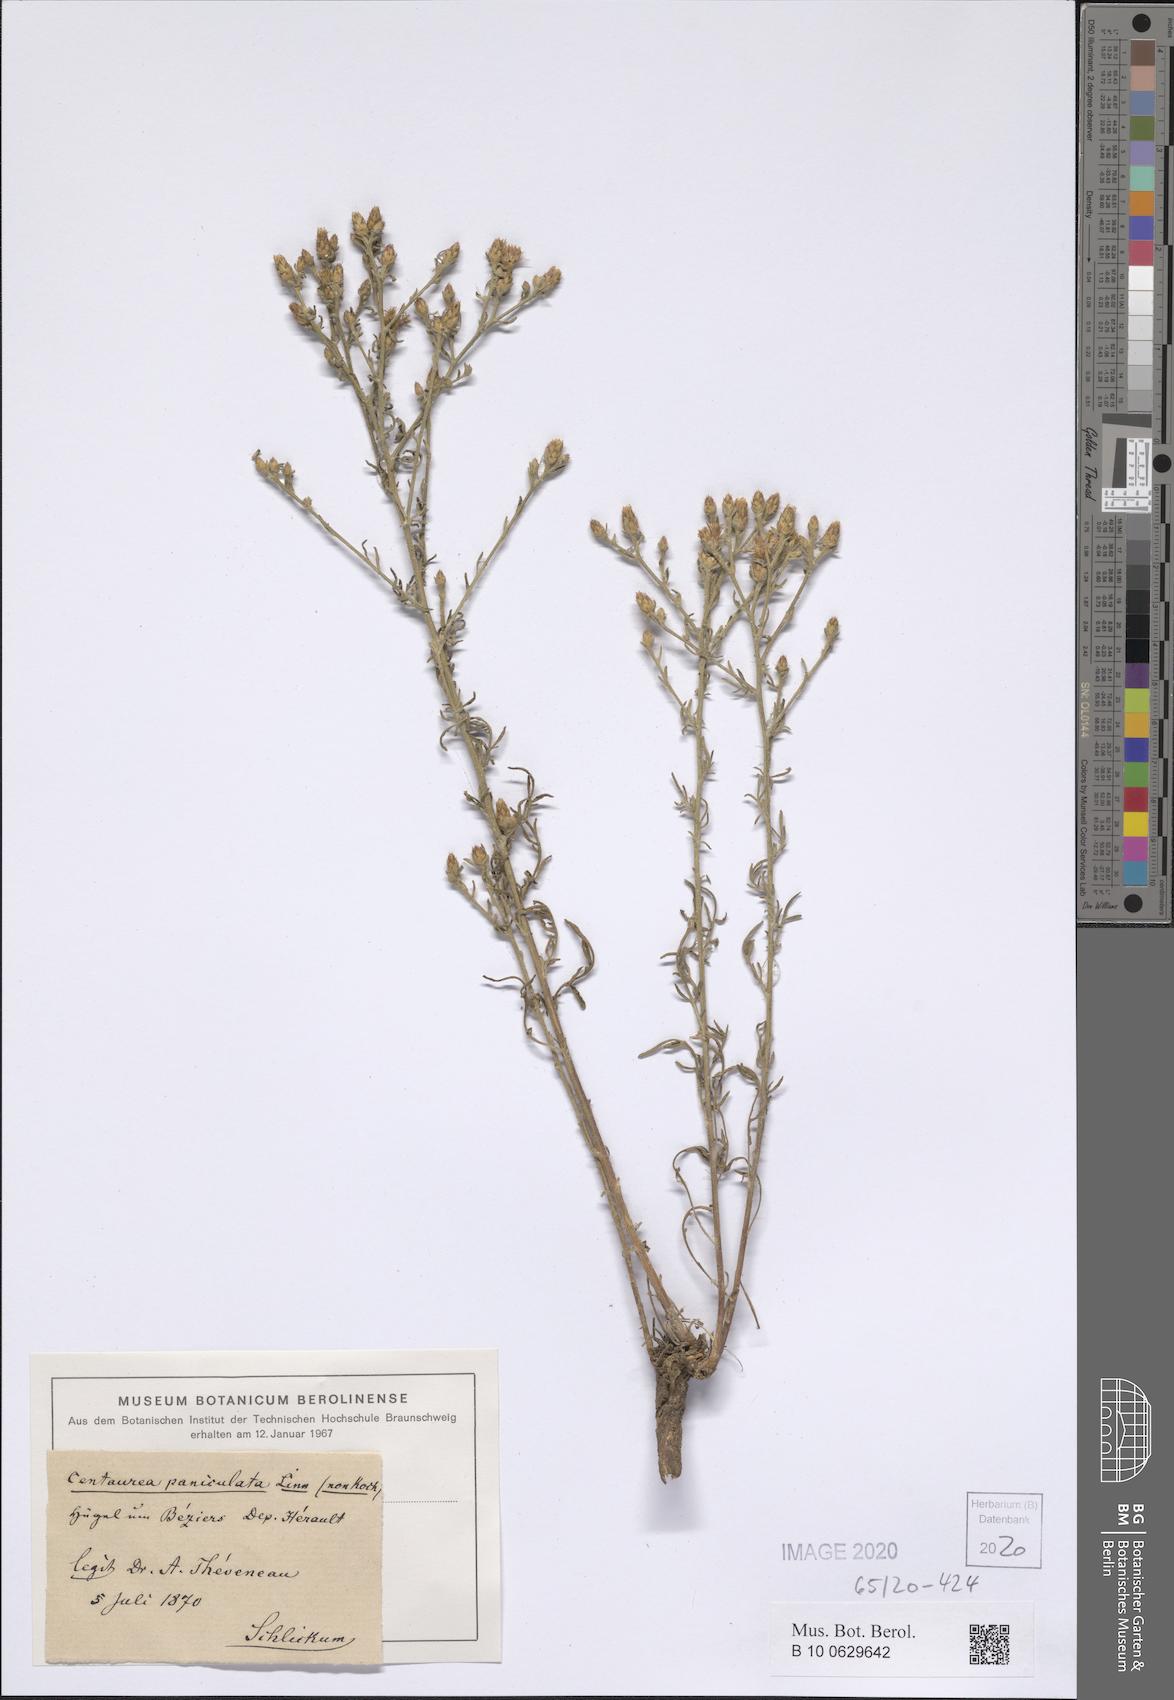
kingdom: Plantae
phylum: Tracheophyta
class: Magnoliopsida
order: Asterales
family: Asteraceae
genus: Centaurea
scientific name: Centaurea paniculata
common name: Jersey knapweed
